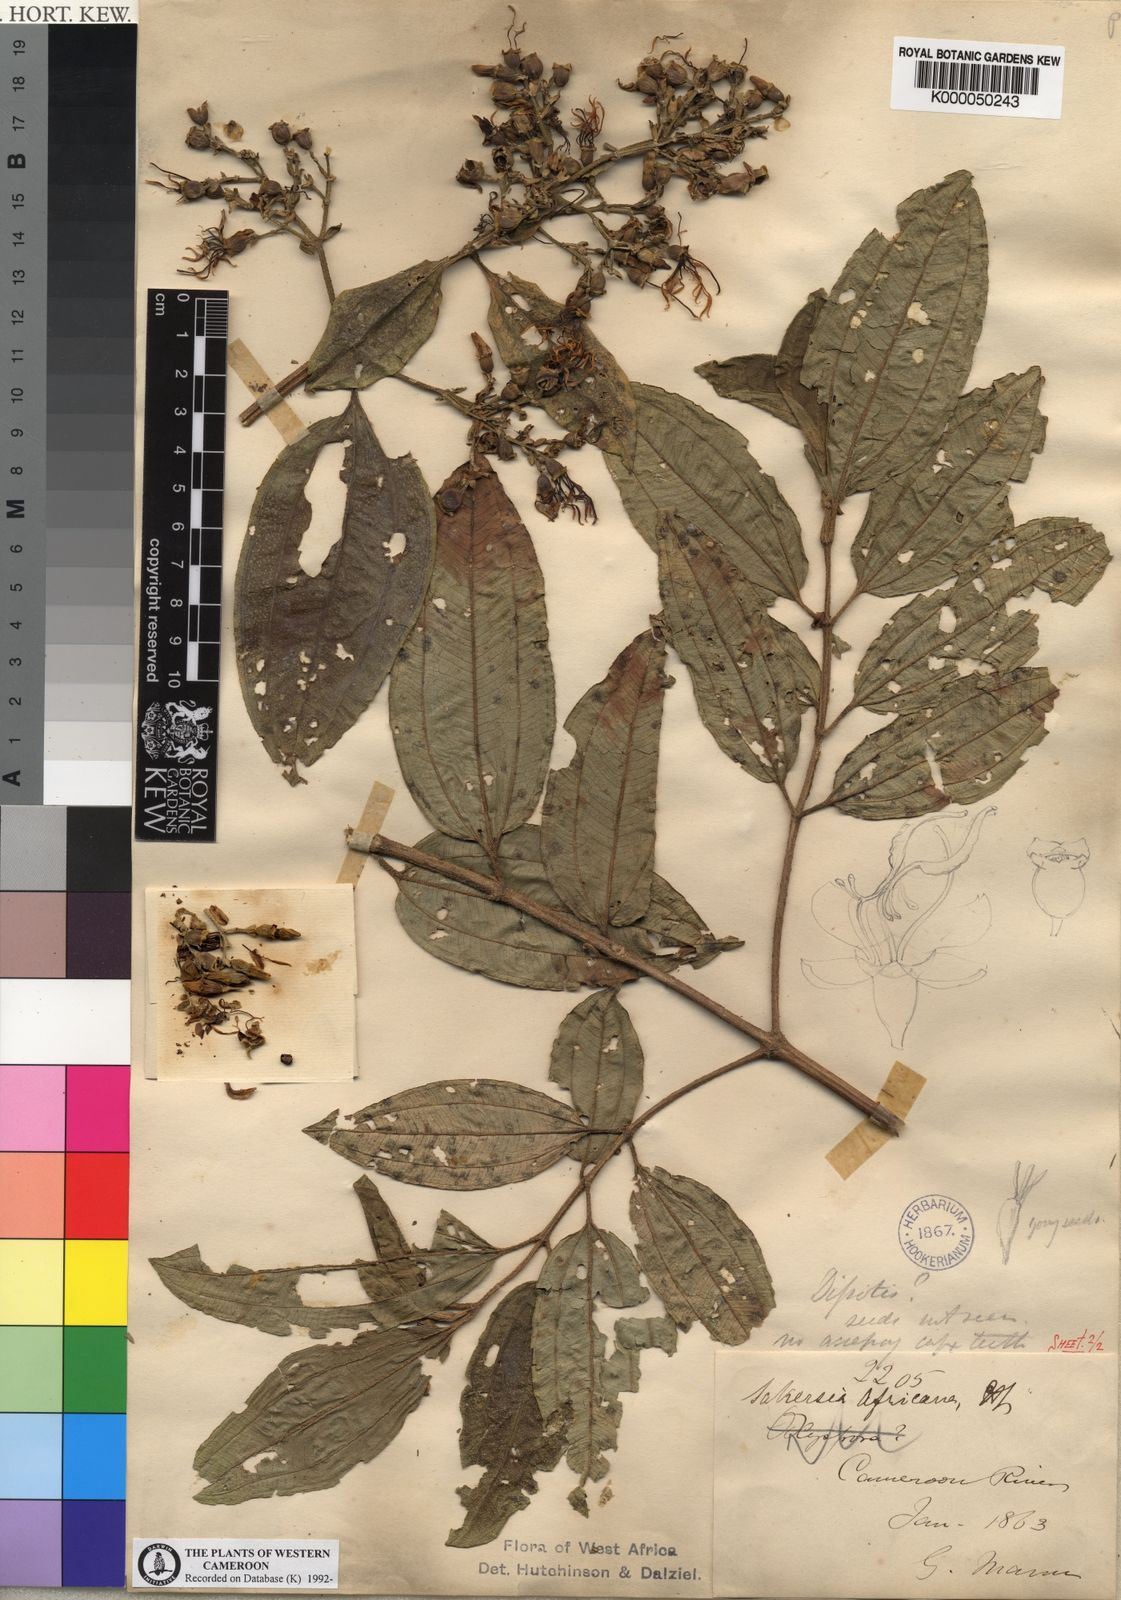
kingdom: Plantae
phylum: Tracheophyta
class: Magnoliopsida
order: Myrtales
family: Melastomataceae
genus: Dichaetanthera
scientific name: Dichaetanthera
